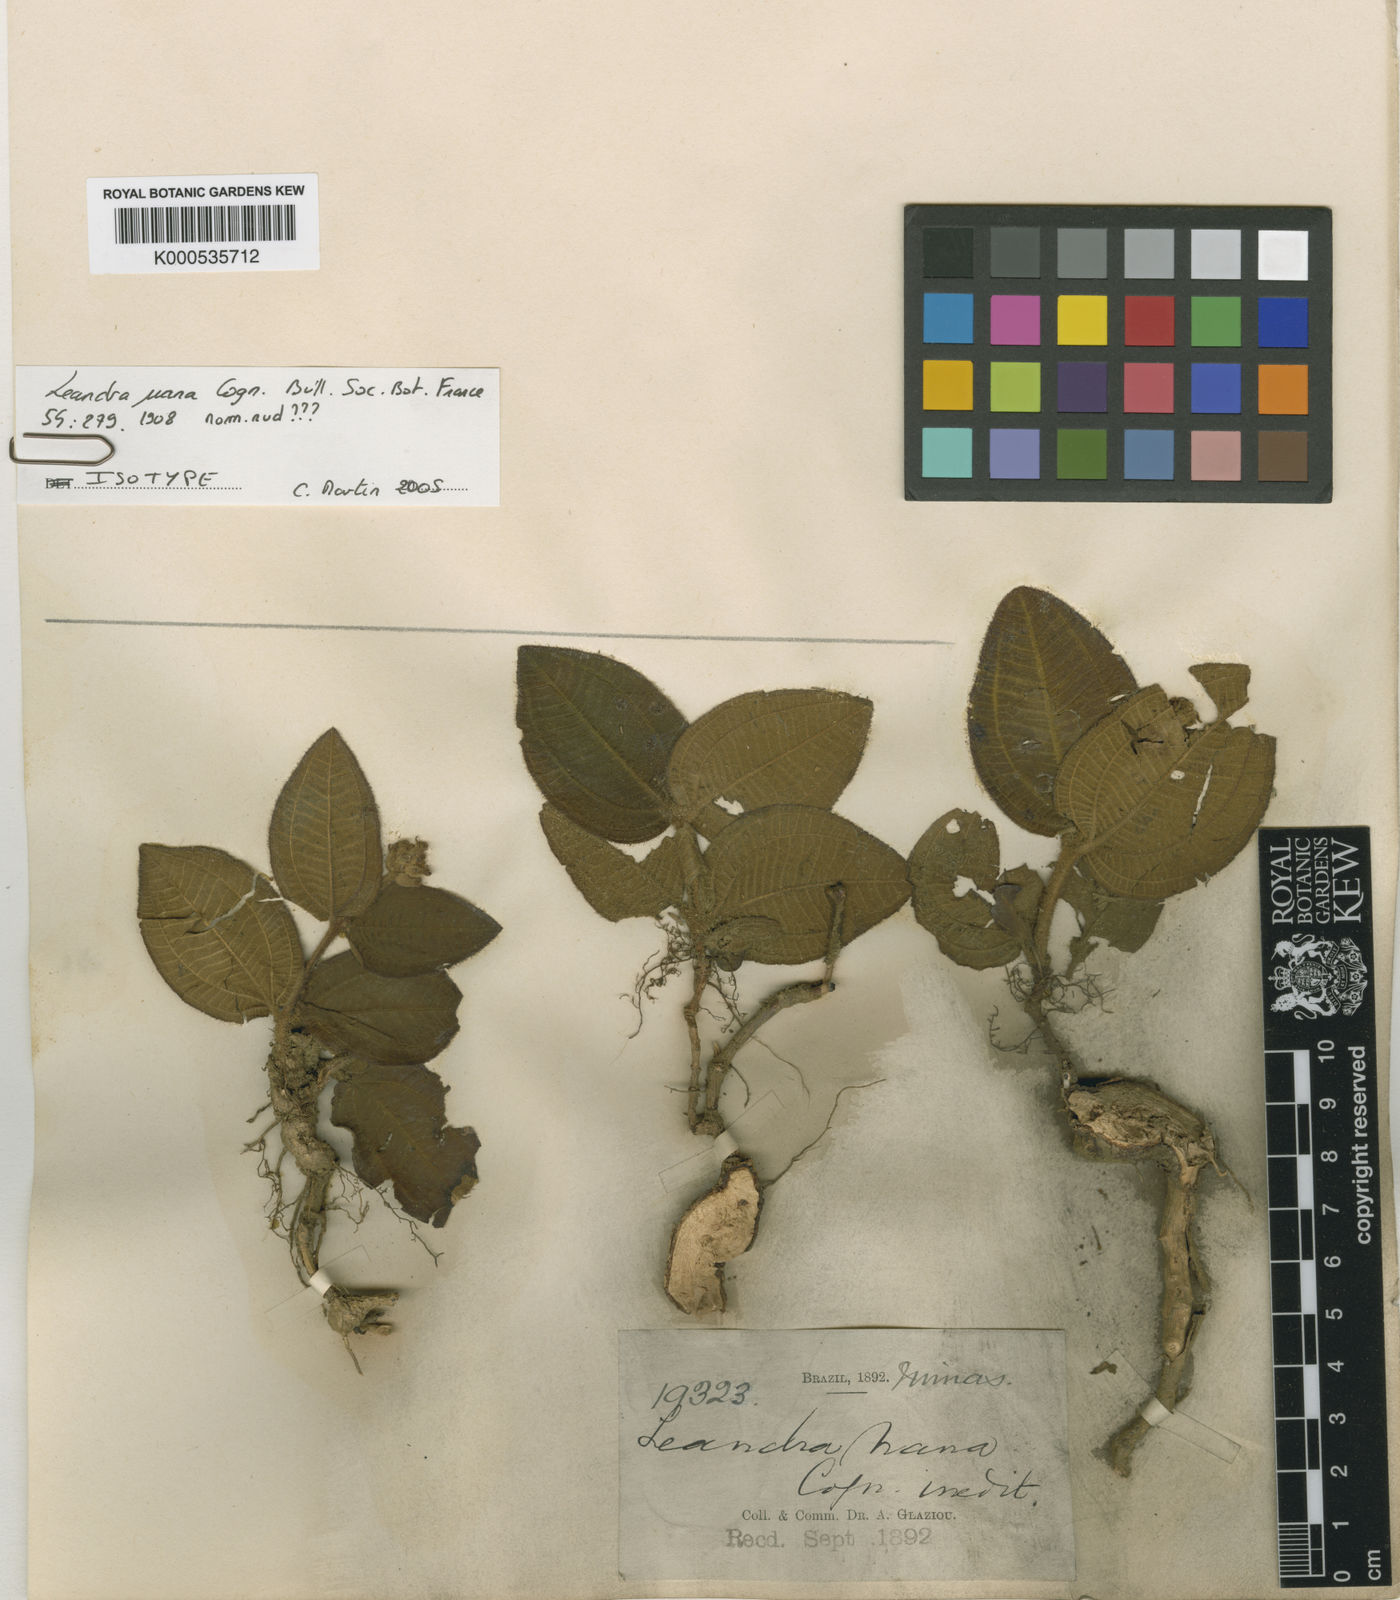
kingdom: Plantae
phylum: Tracheophyta
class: Magnoliopsida
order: Myrtales
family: Melastomataceae
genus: Miconia
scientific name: Miconia Leandra nana
